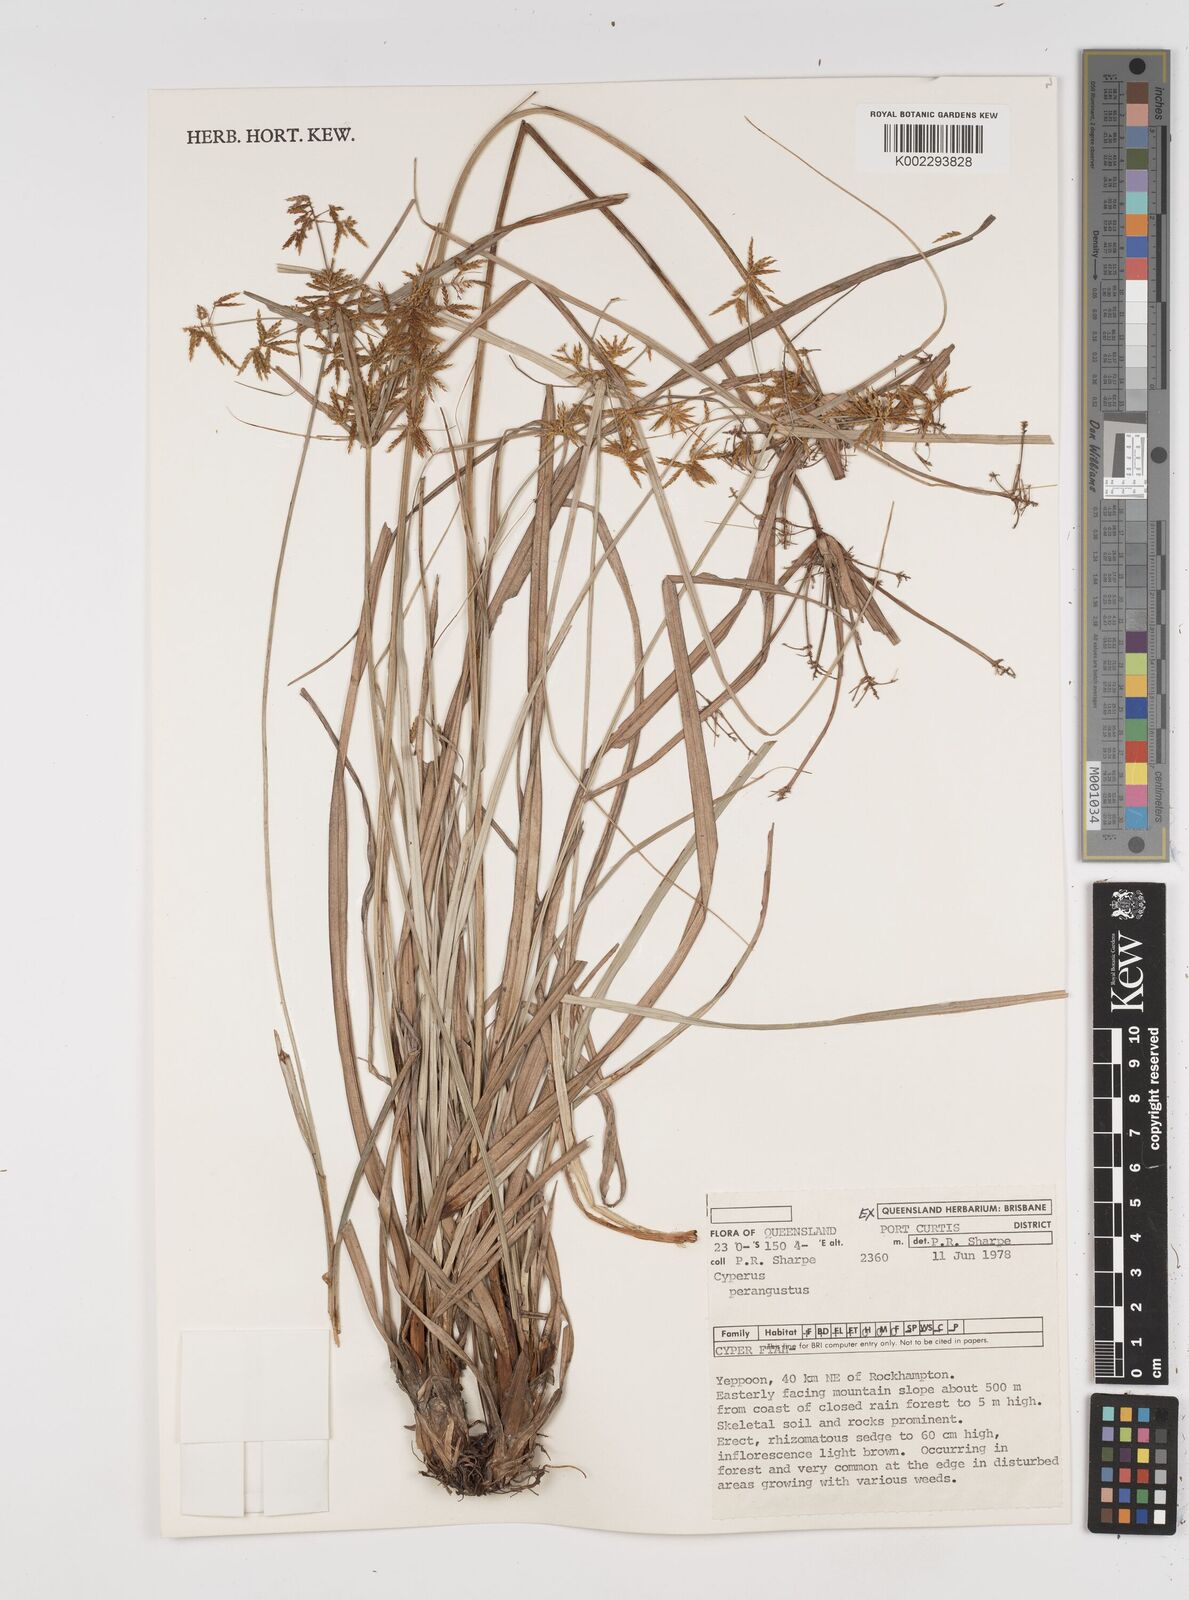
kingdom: Plantae
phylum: Tracheophyta
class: Liliopsida
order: Poales
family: Cyperaceae
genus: Cyperus
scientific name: Cyperus perangustus
